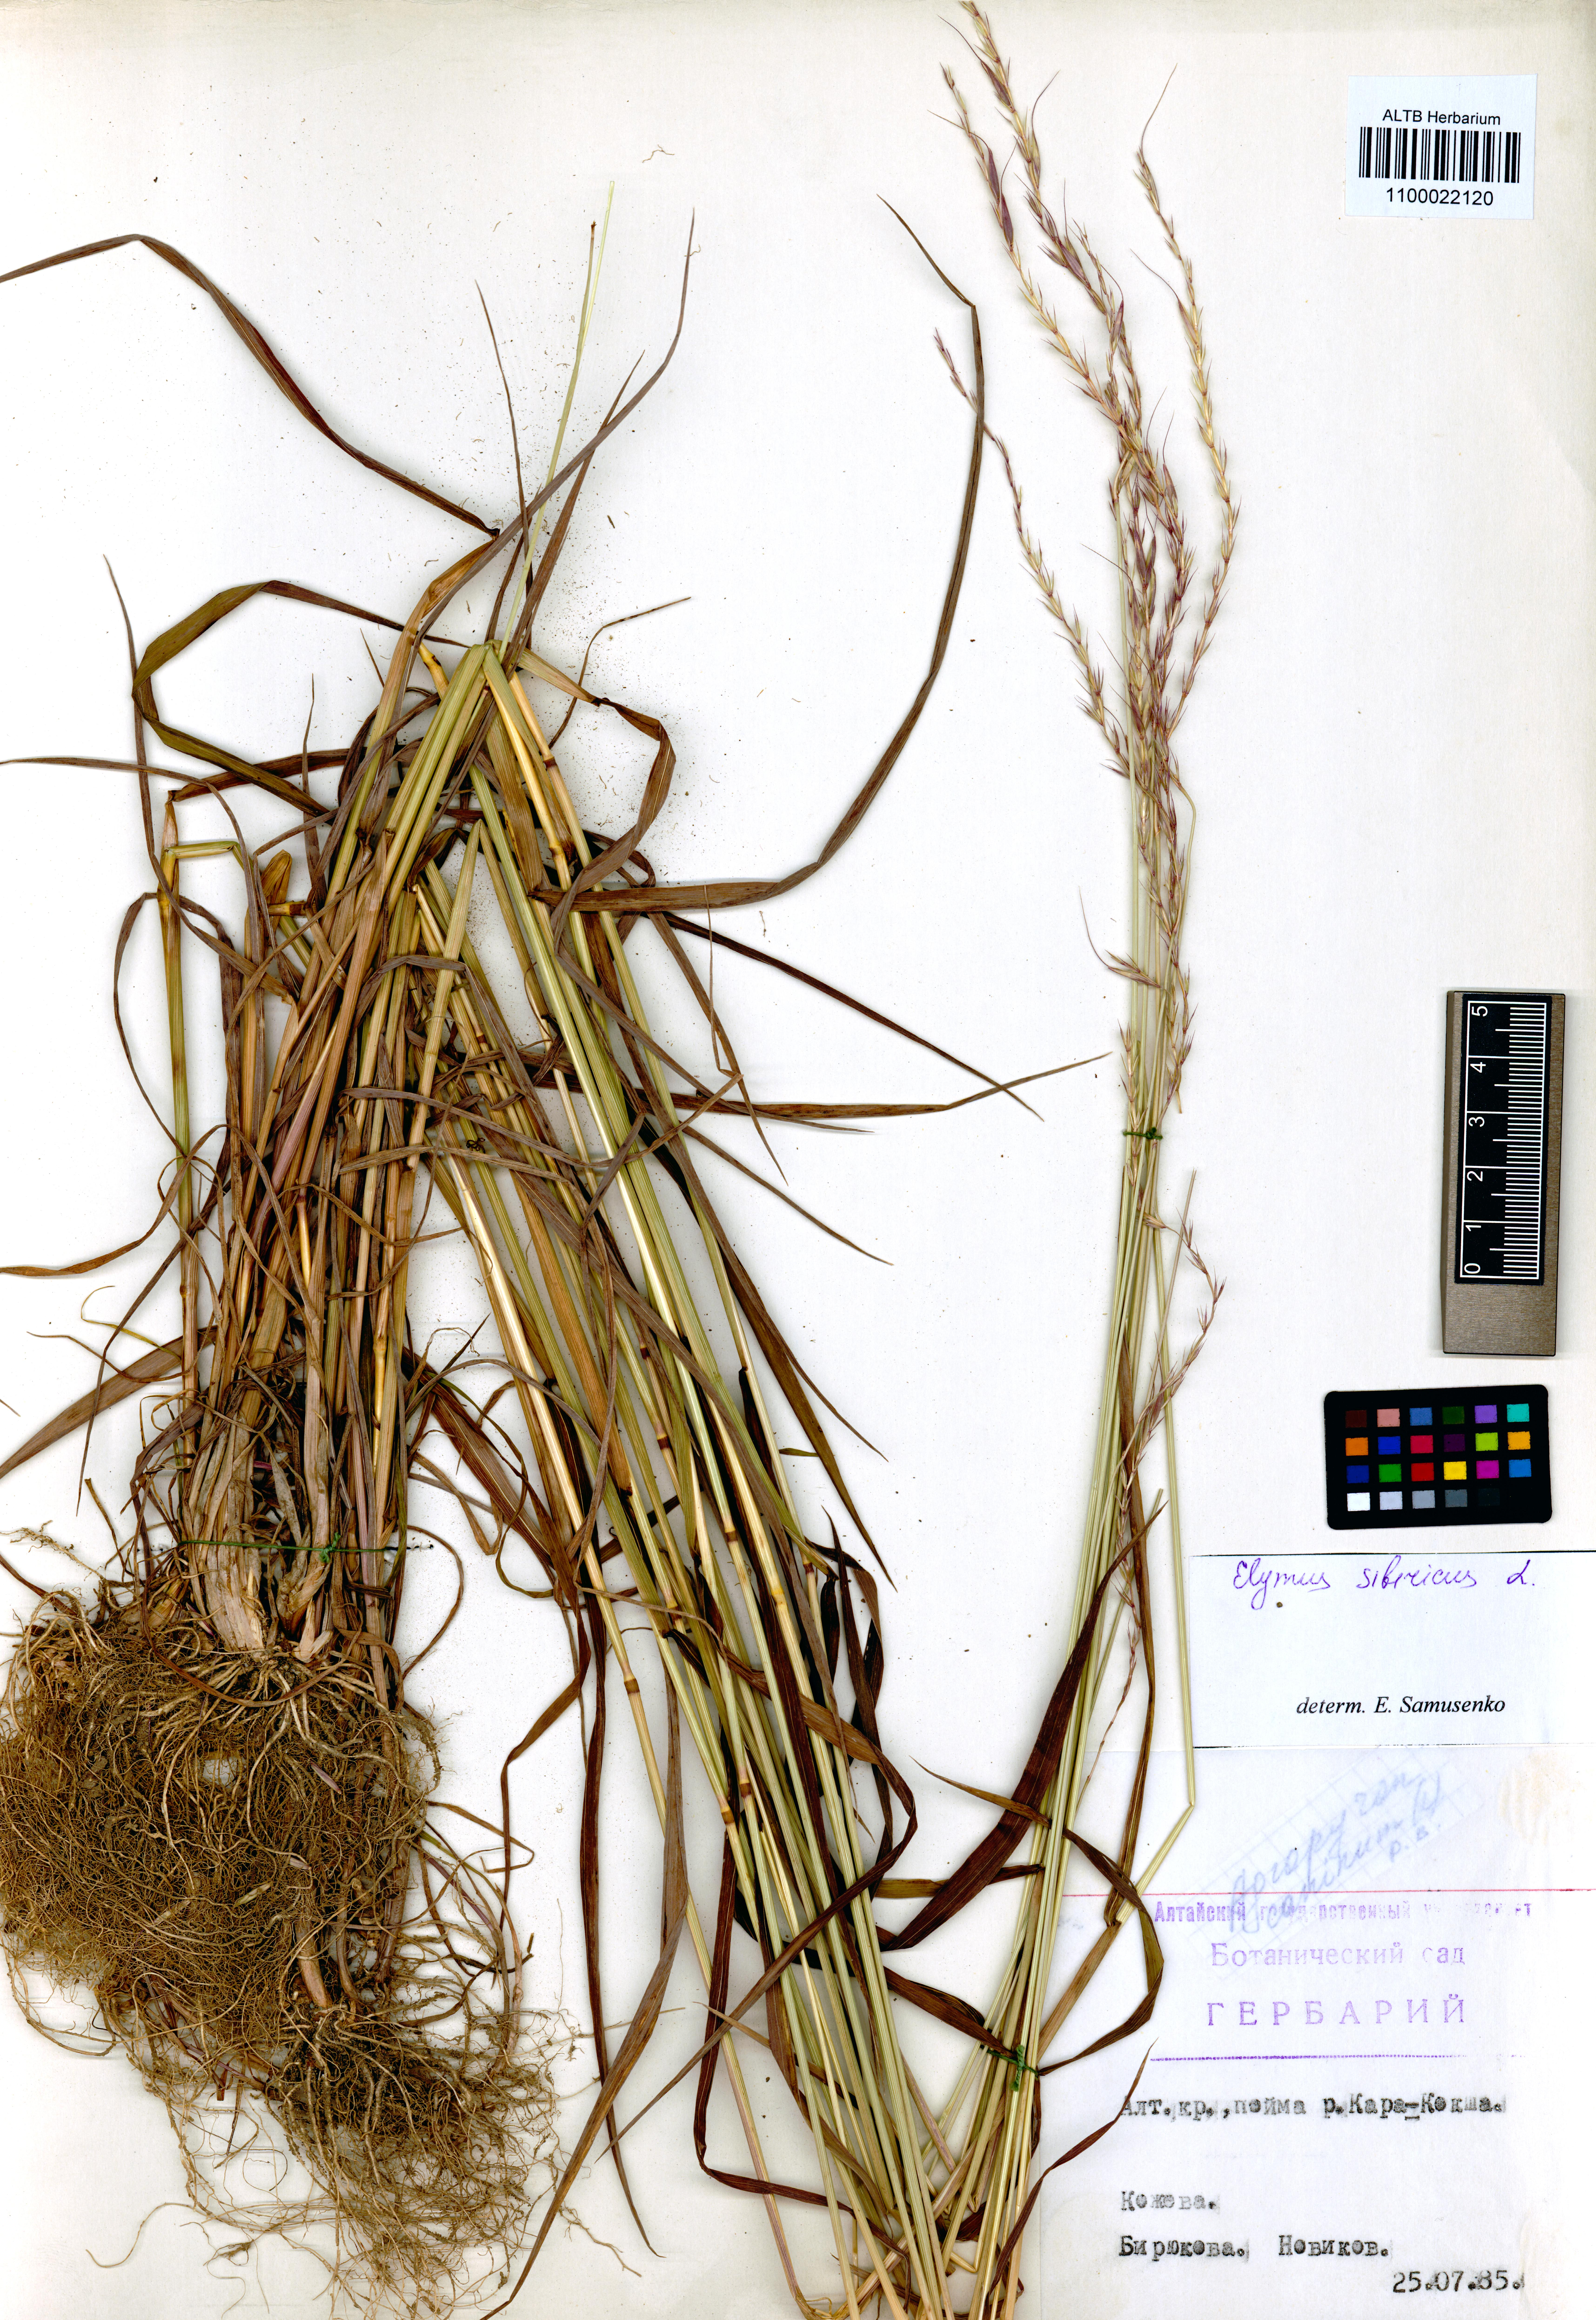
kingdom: Plantae
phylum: Tracheophyta
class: Liliopsida
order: Poales
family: Poaceae
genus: Elymus
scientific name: Elymus sibiricus
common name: Siberian wildrye
